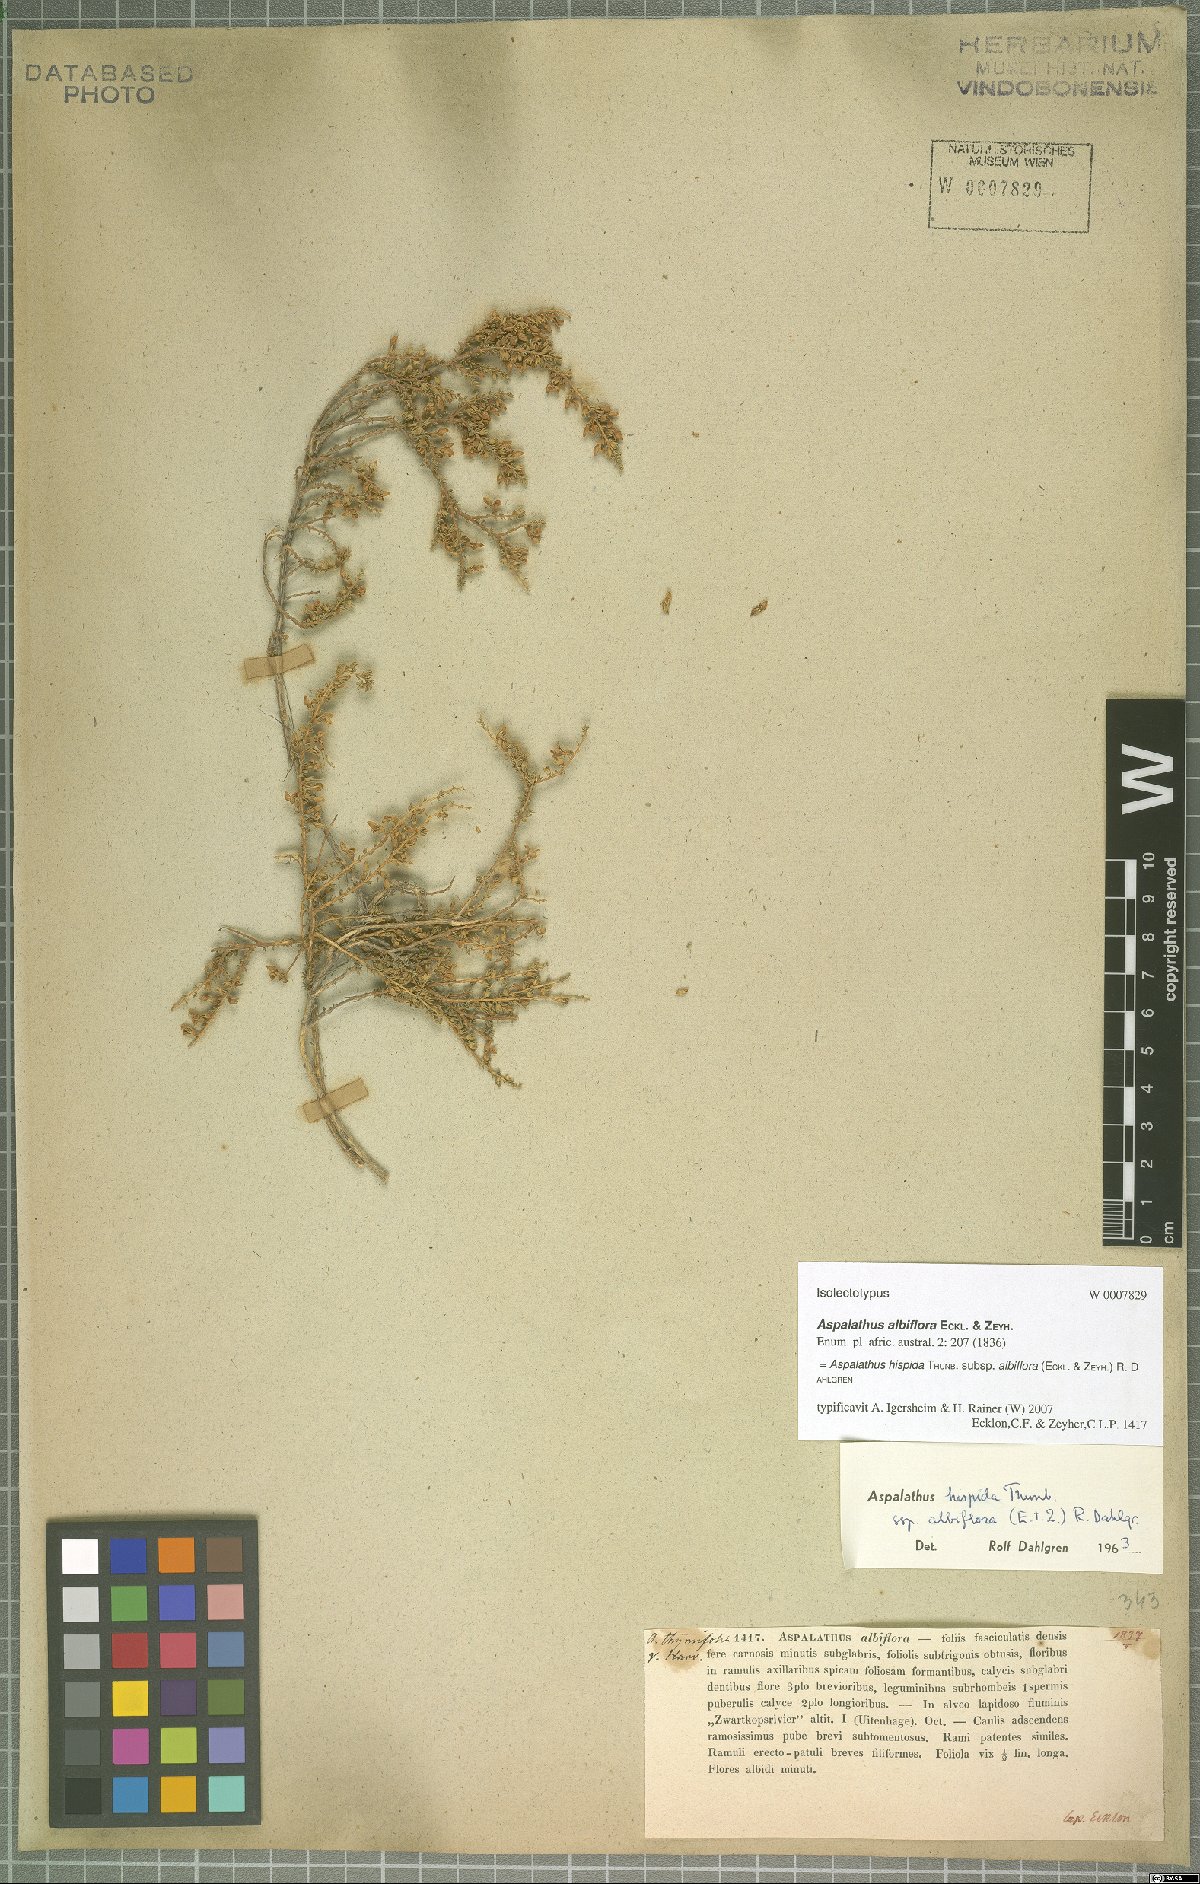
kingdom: Plantae
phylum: Tracheophyta
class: Magnoliopsida
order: Fabales
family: Fabaceae
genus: Aspalathus
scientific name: Aspalathus hispida
